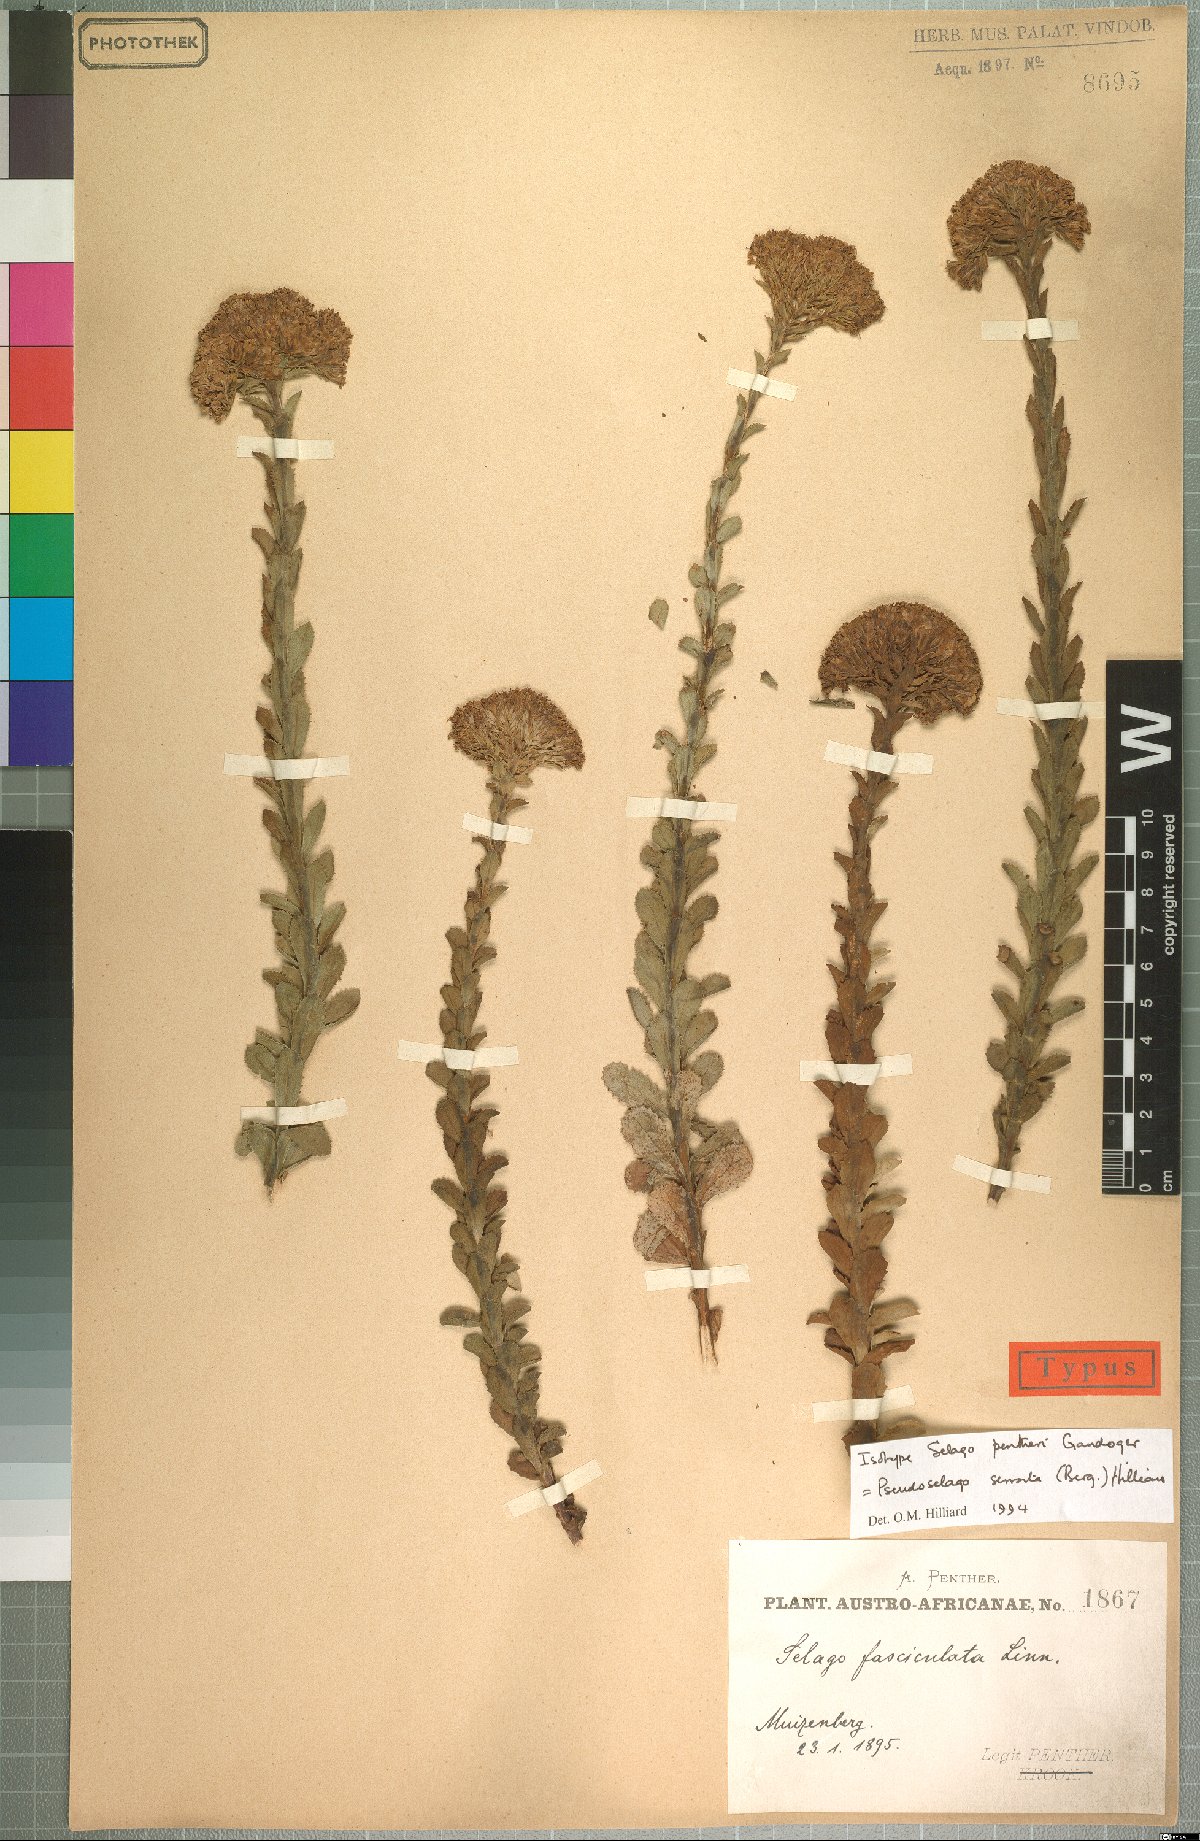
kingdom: Plantae
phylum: Tracheophyta
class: Magnoliopsida
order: Lamiales
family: Scrophulariaceae
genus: Pseudoselago
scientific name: Pseudoselago serrata
